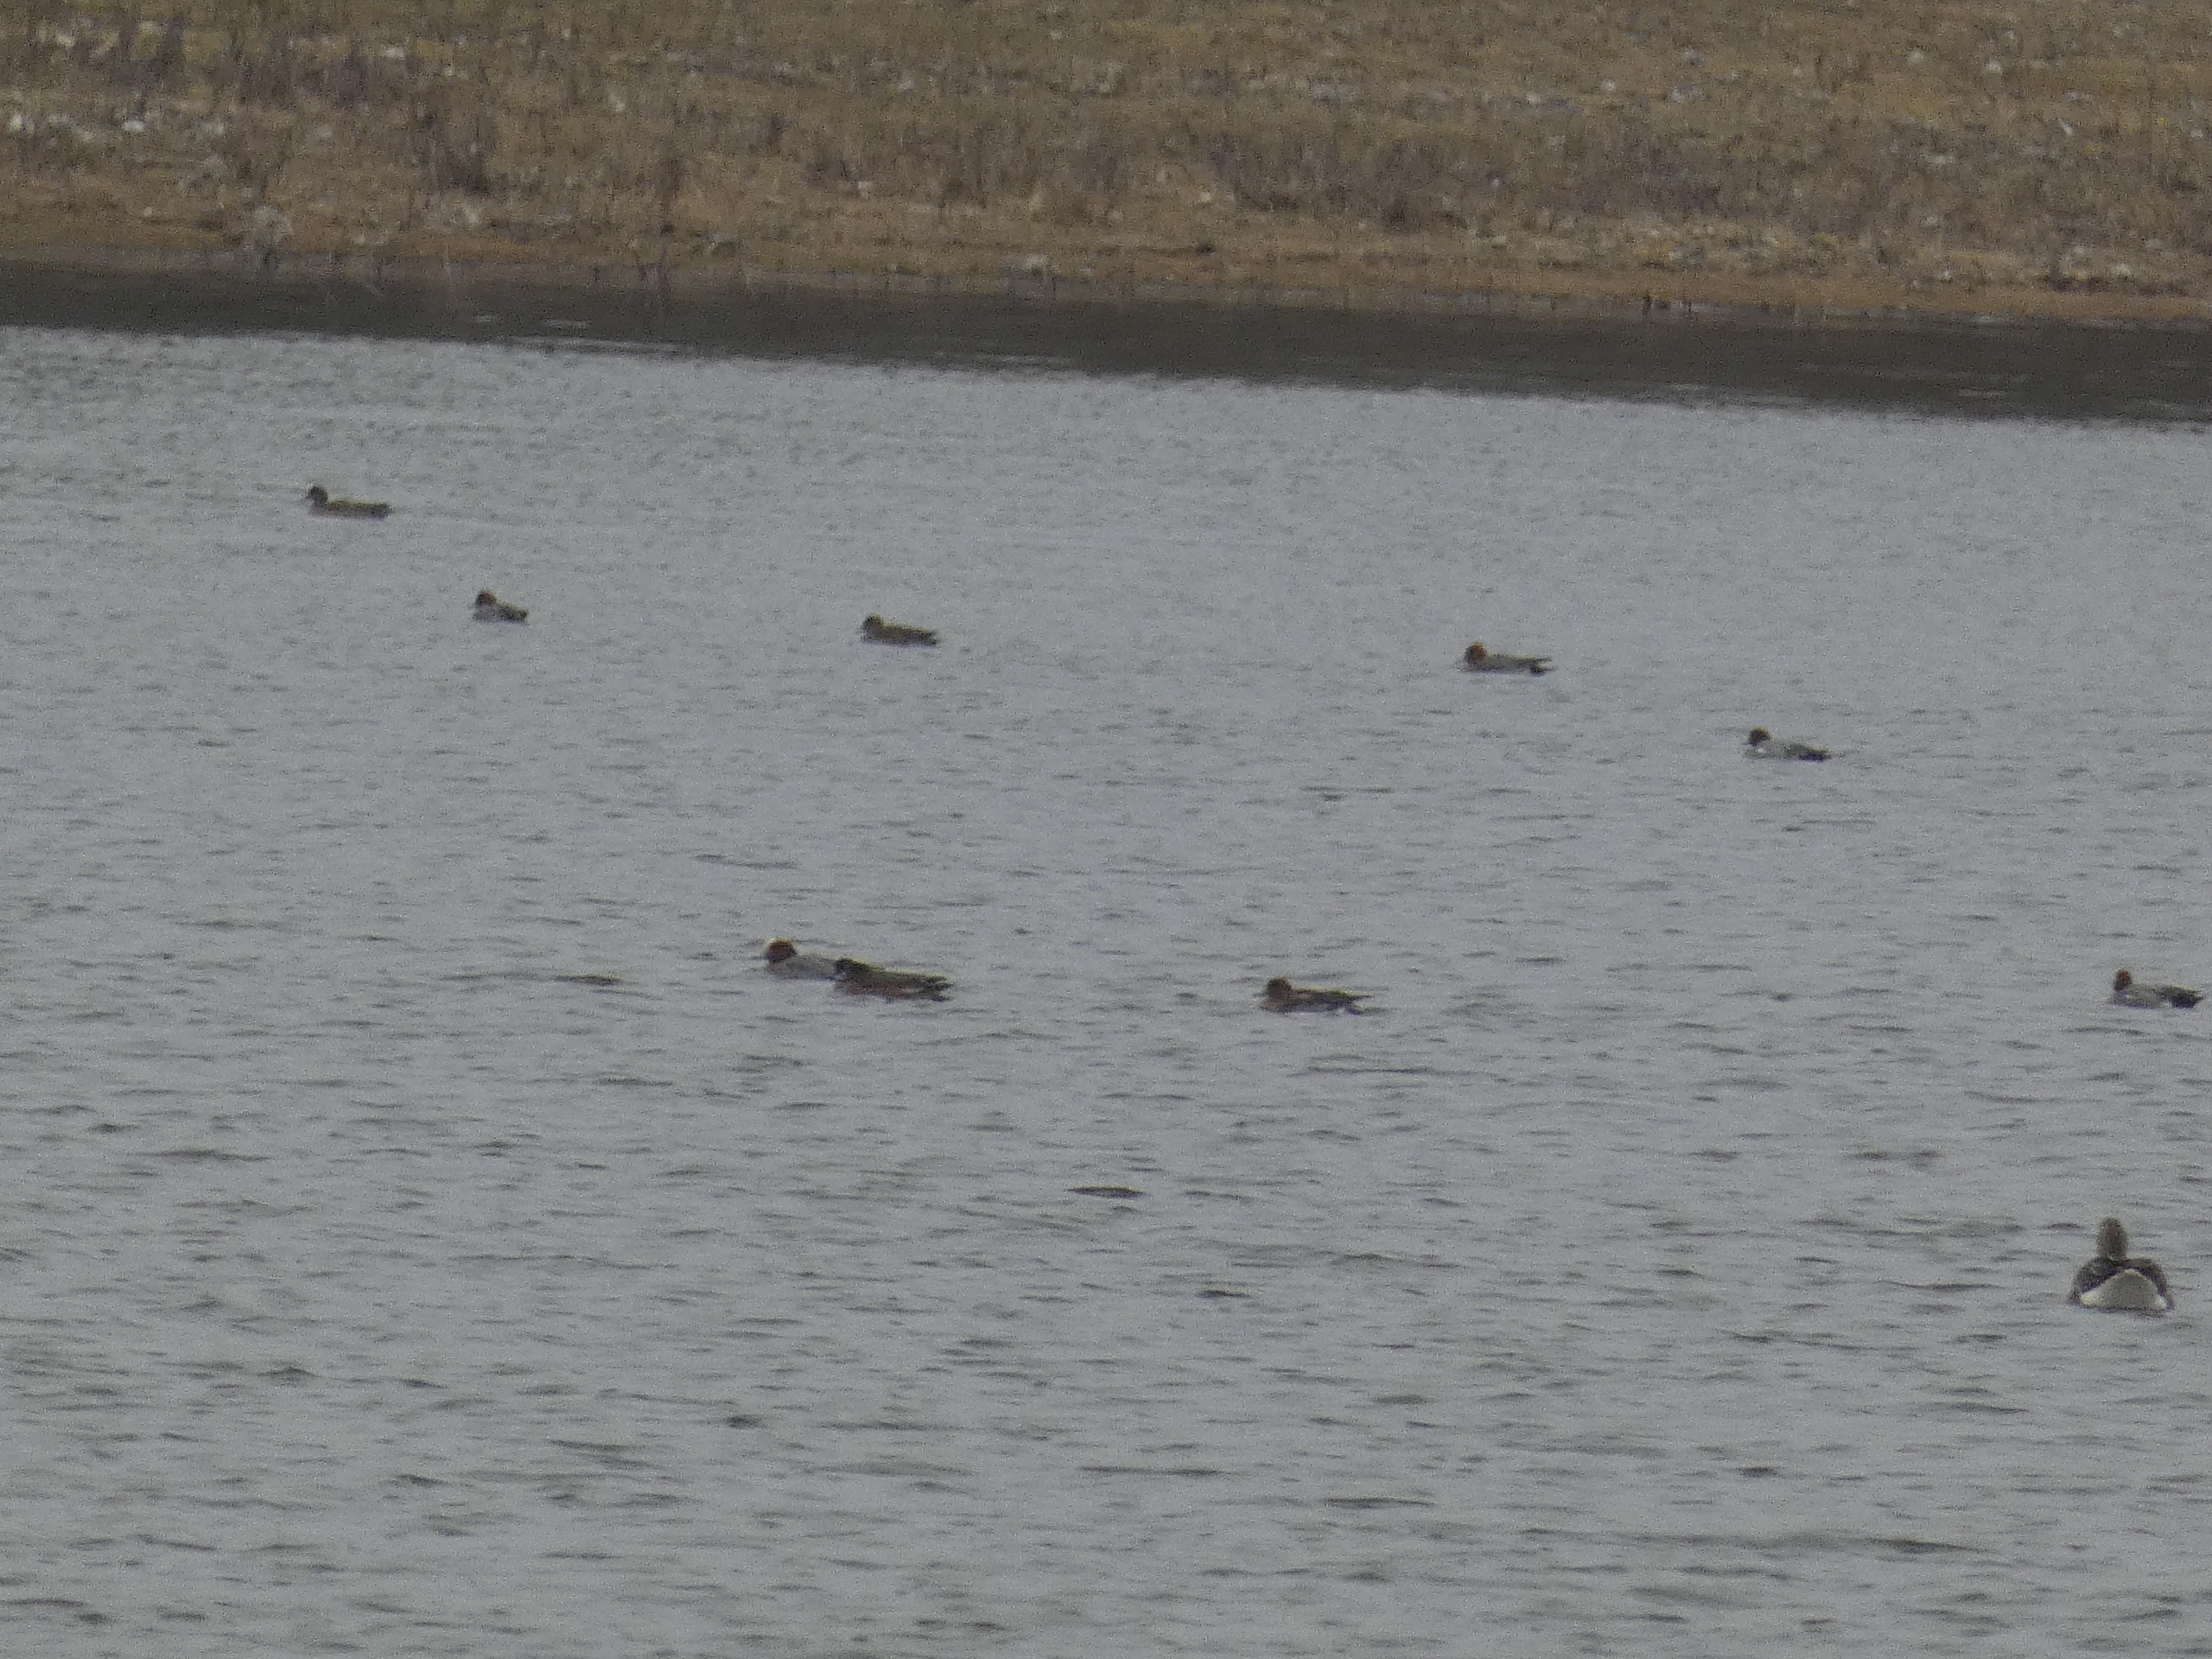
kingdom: Animalia
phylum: Chordata
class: Aves
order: Anseriformes
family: Anatidae
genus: Mareca
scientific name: Mareca penelope
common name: Pibeand
